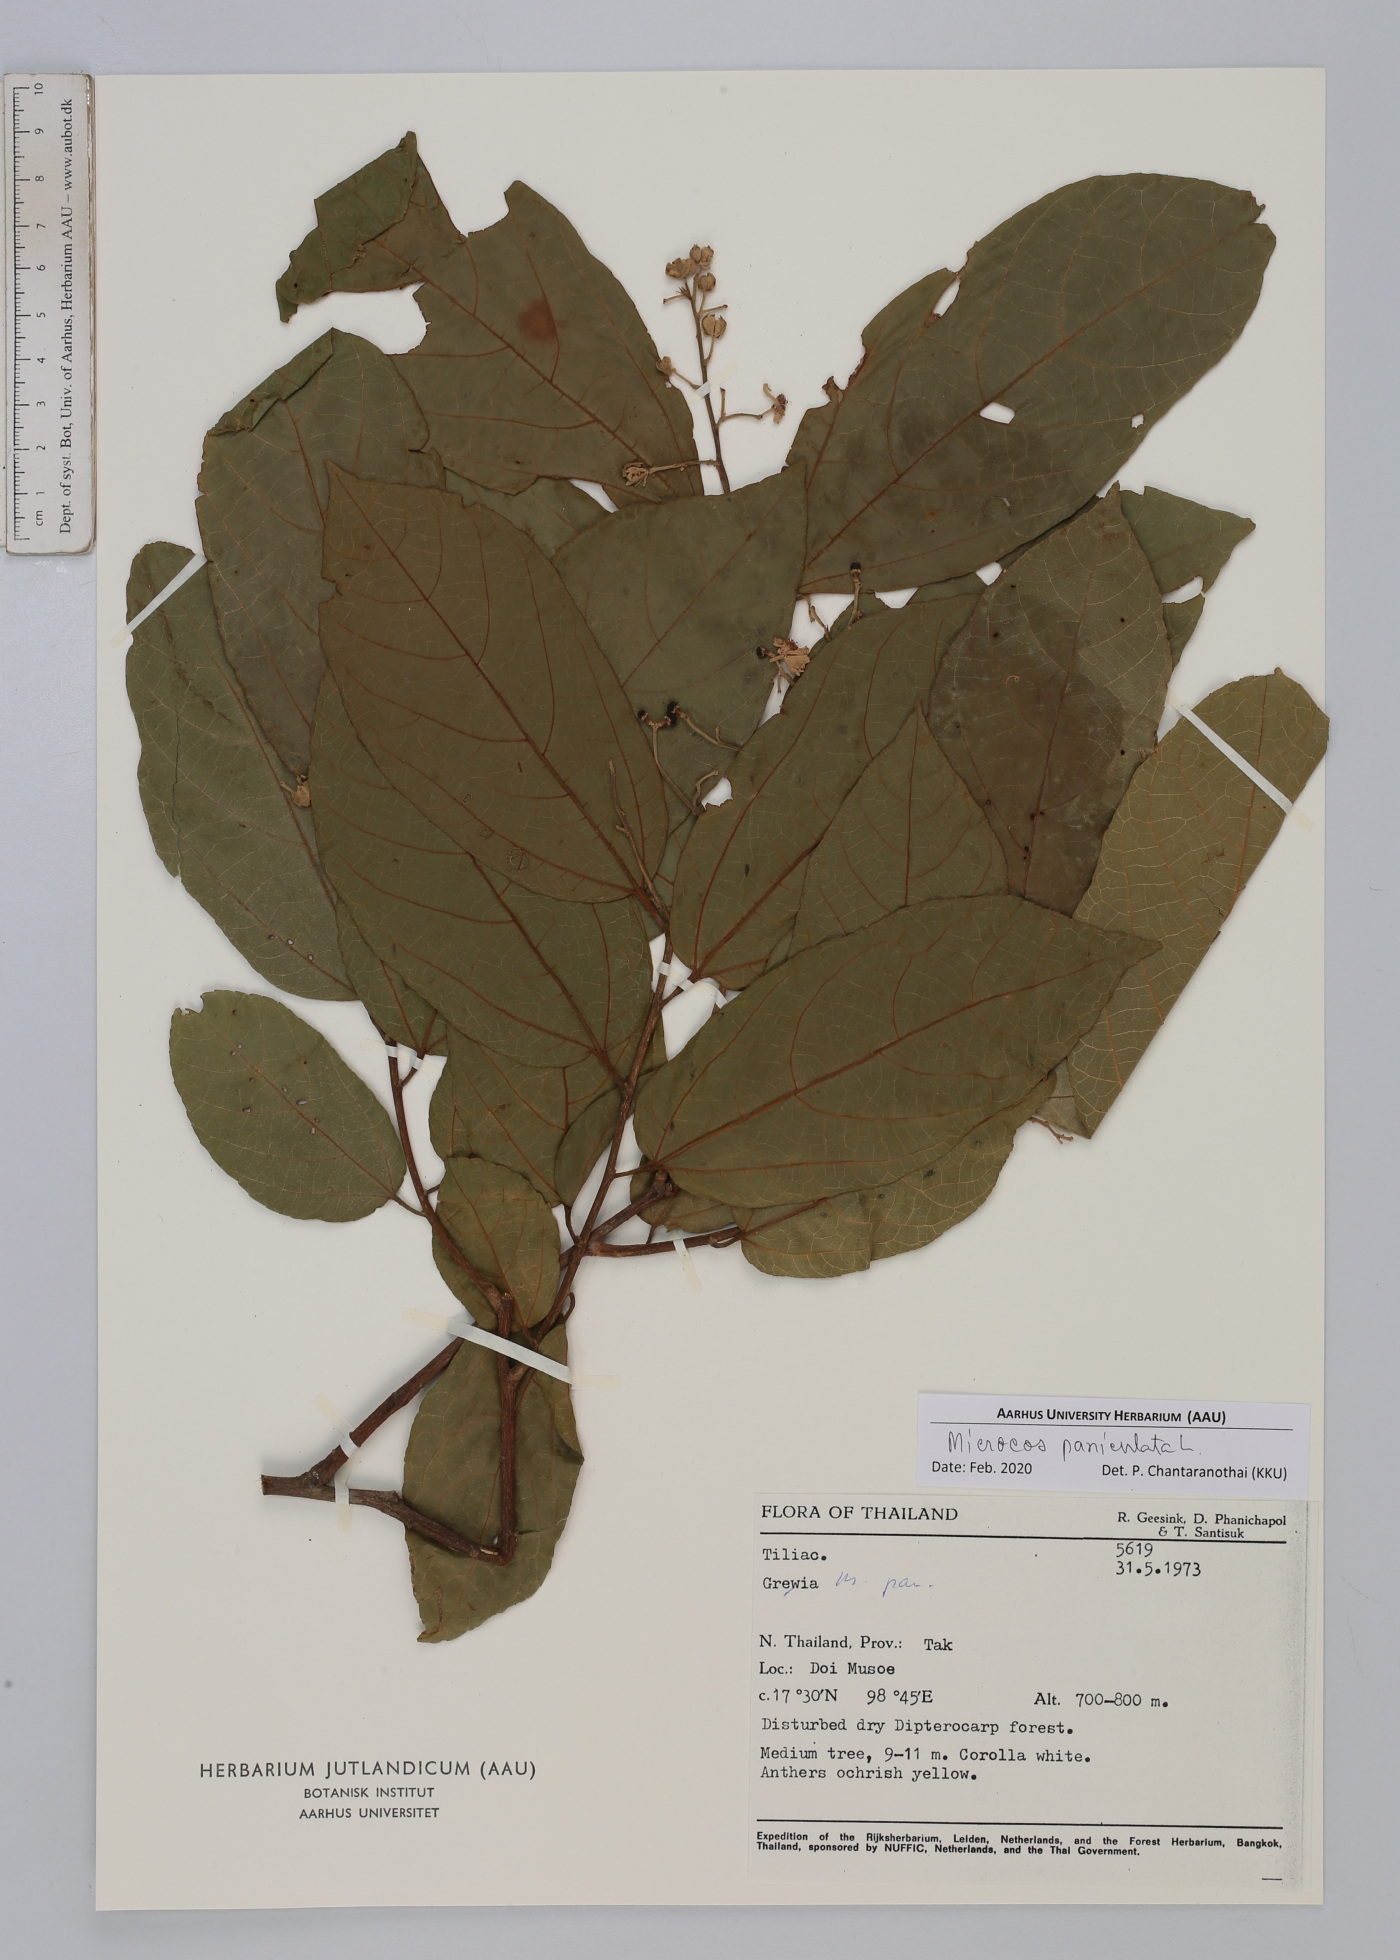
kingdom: Plantae
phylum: Tracheophyta
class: Magnoliopsida
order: Malvales
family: Malvaceae
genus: Microcos
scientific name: Microcos paniculata
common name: Microcos
